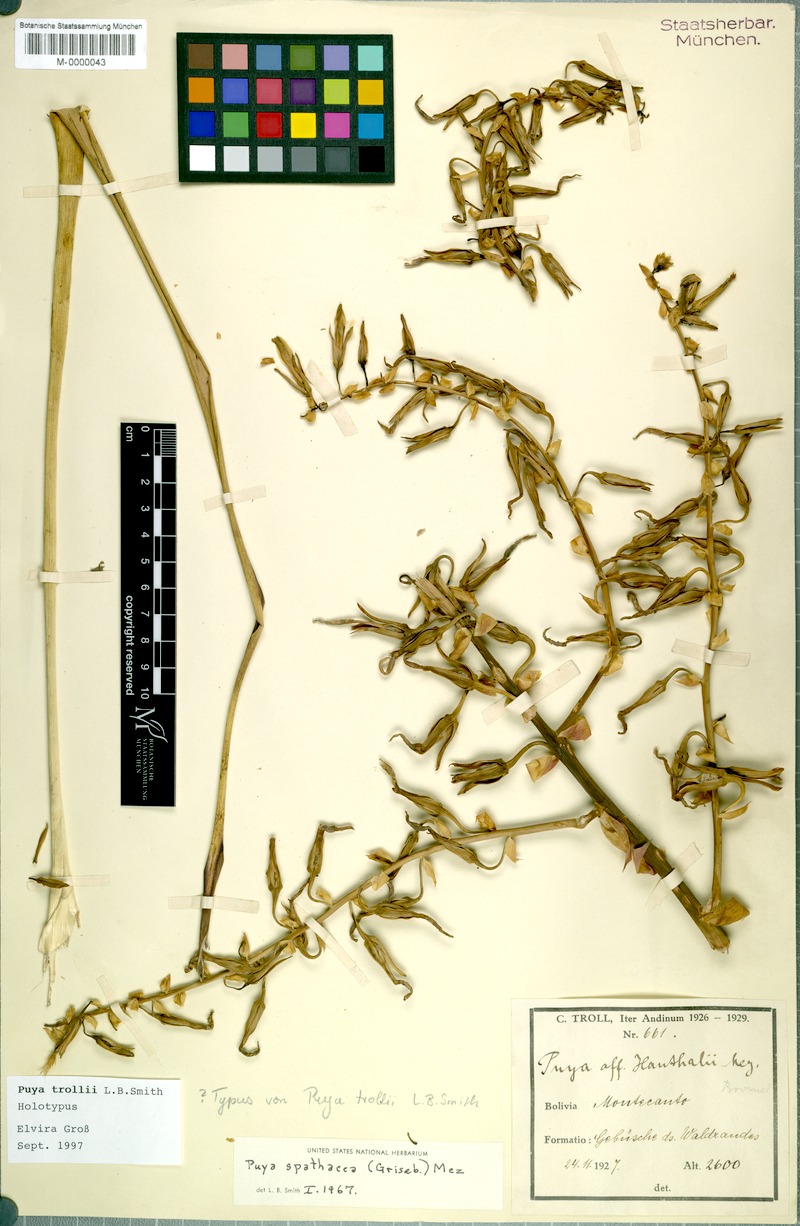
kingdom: Plantae
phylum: Tracheophyta
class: Liliopsida
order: Poales
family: Bromeliaceae
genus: Puya
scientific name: Puya trollii
